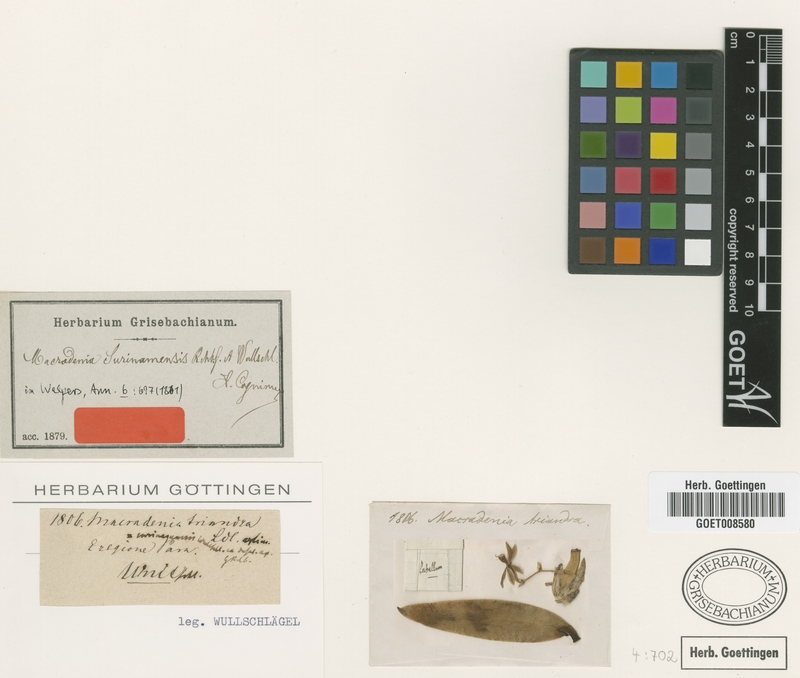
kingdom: Plantae
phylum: Tracheophyta
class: Liliopsida
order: Asparagales
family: Orchidaceae
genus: Macradenia
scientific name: Macradenia lutescens
